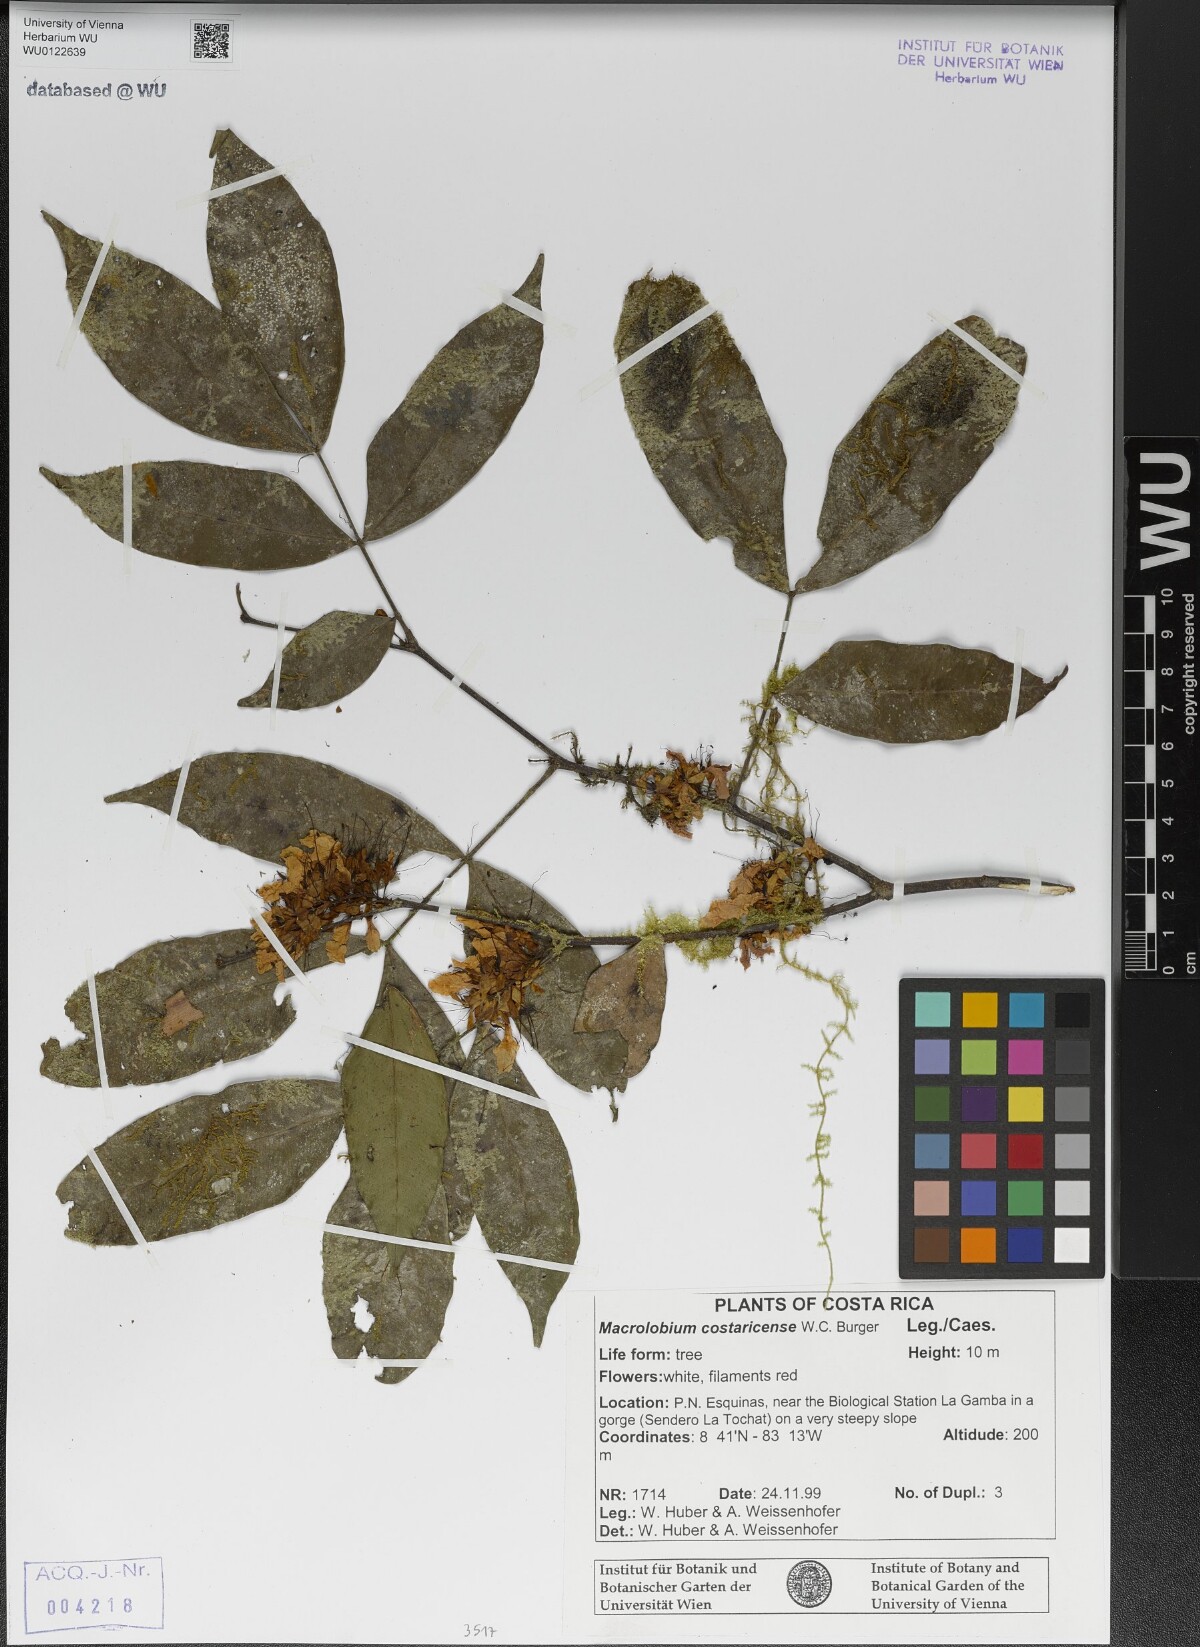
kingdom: Plantae
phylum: Tracheophyta
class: Magnoliopsida
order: Fabales
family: Fabaceae
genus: Macrolobium
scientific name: Macrolobium costaricense
